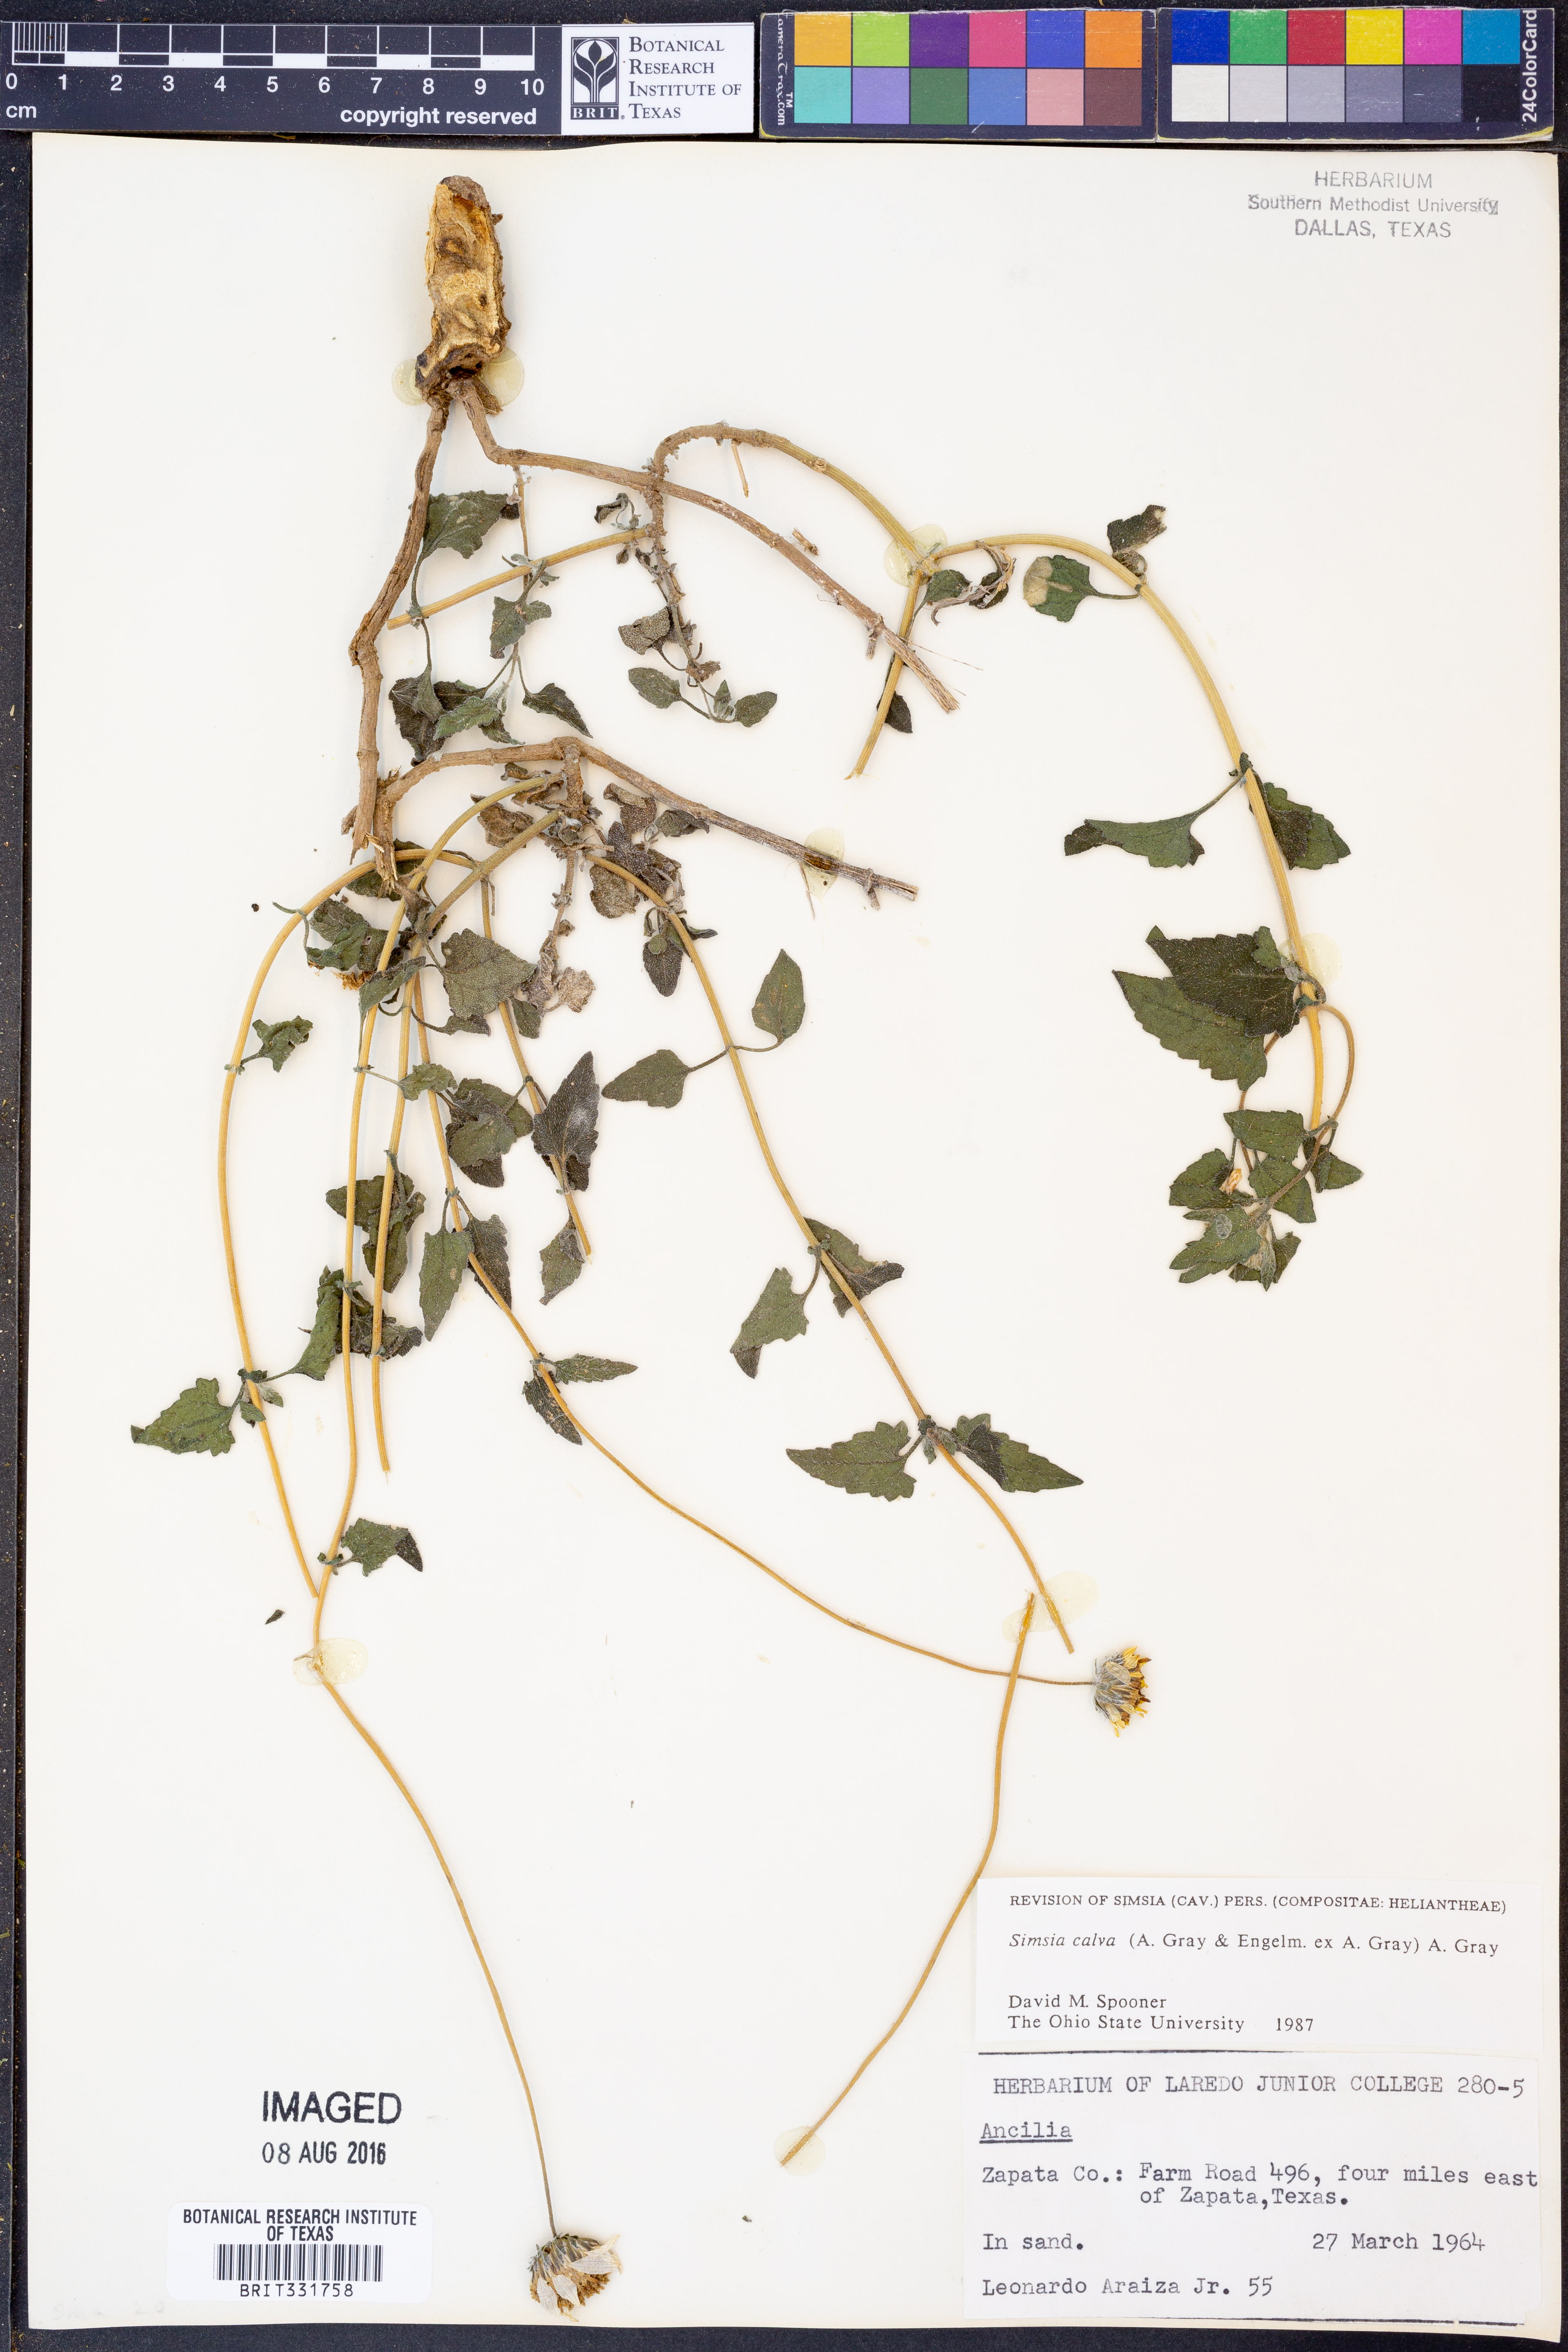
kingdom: Plantae
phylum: Tracheophyta
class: Magnoliopsida
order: Asterales
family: Asteraceae
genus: Simsia
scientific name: Simsia calva
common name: Awnless bush-sunflower
